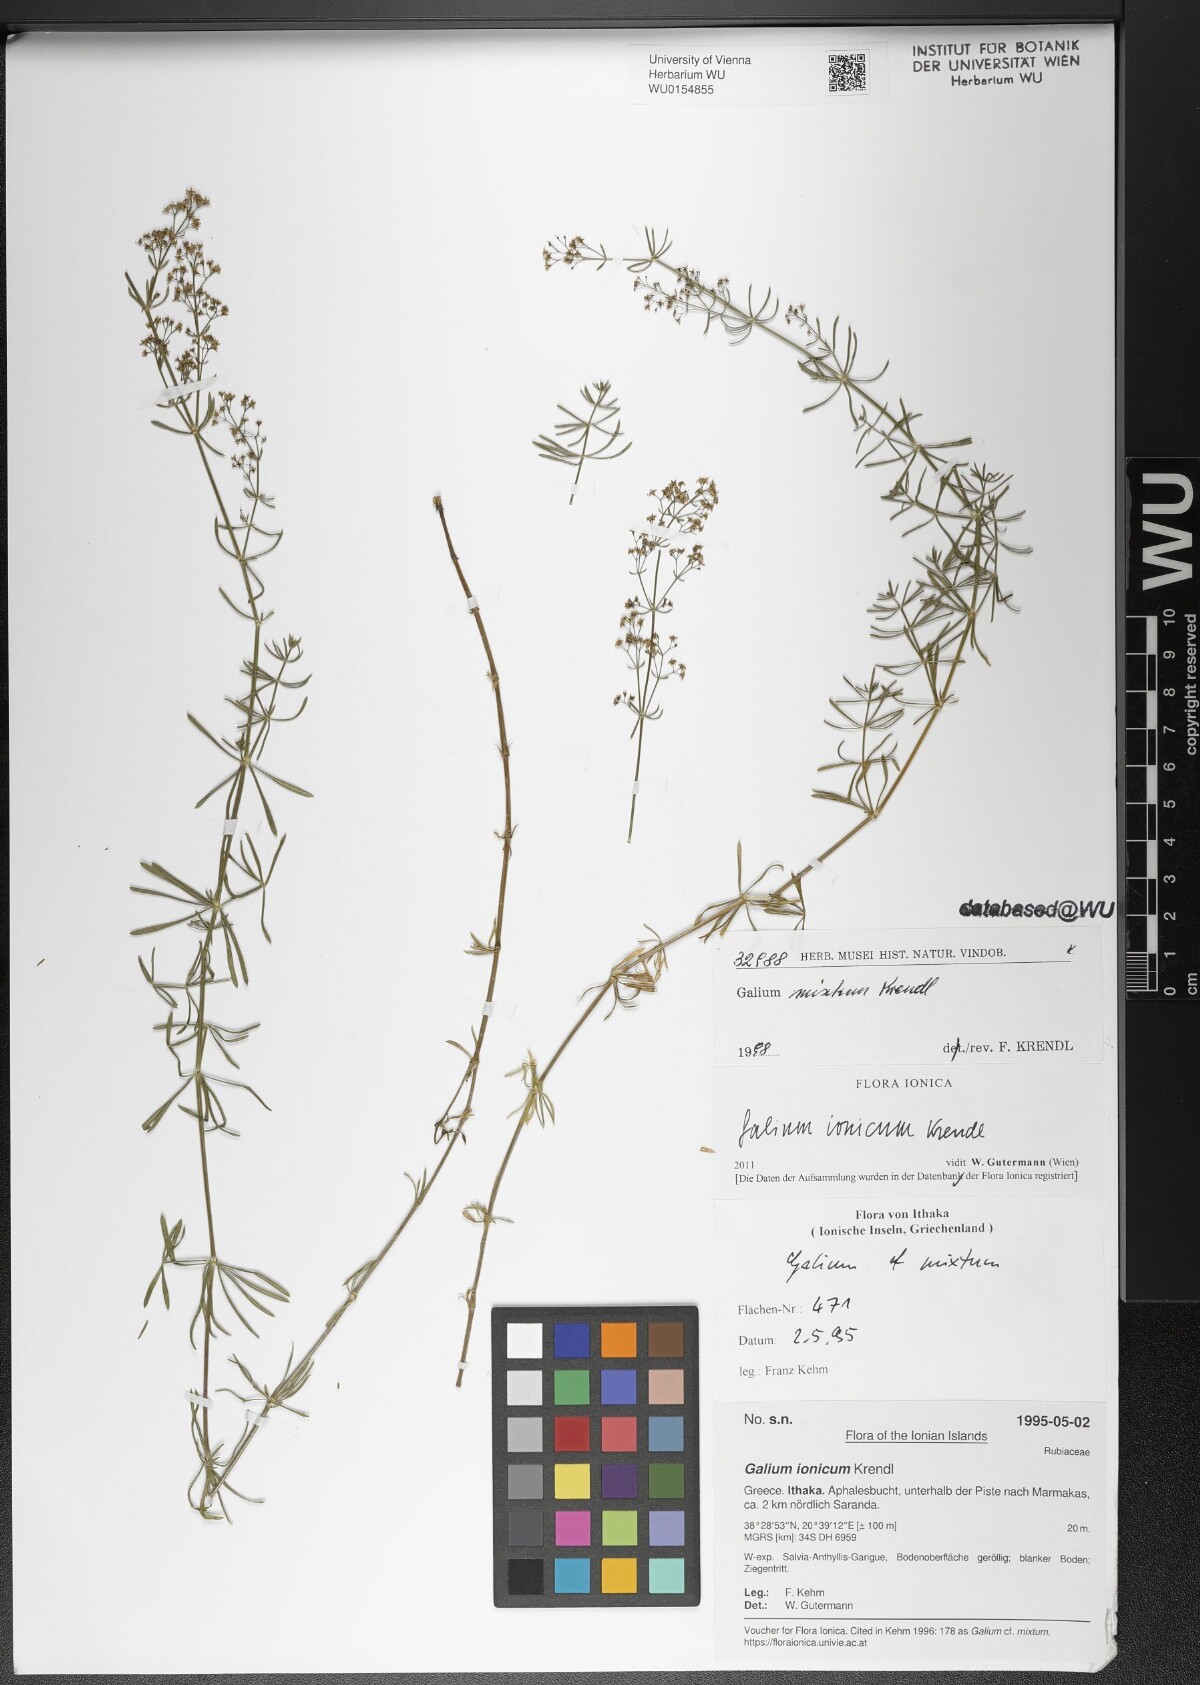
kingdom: Plantae
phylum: Tracheophyta
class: Magnoliopsida
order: Gentianales
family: Rubiaceae
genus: Galium
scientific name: Galium ionicum
